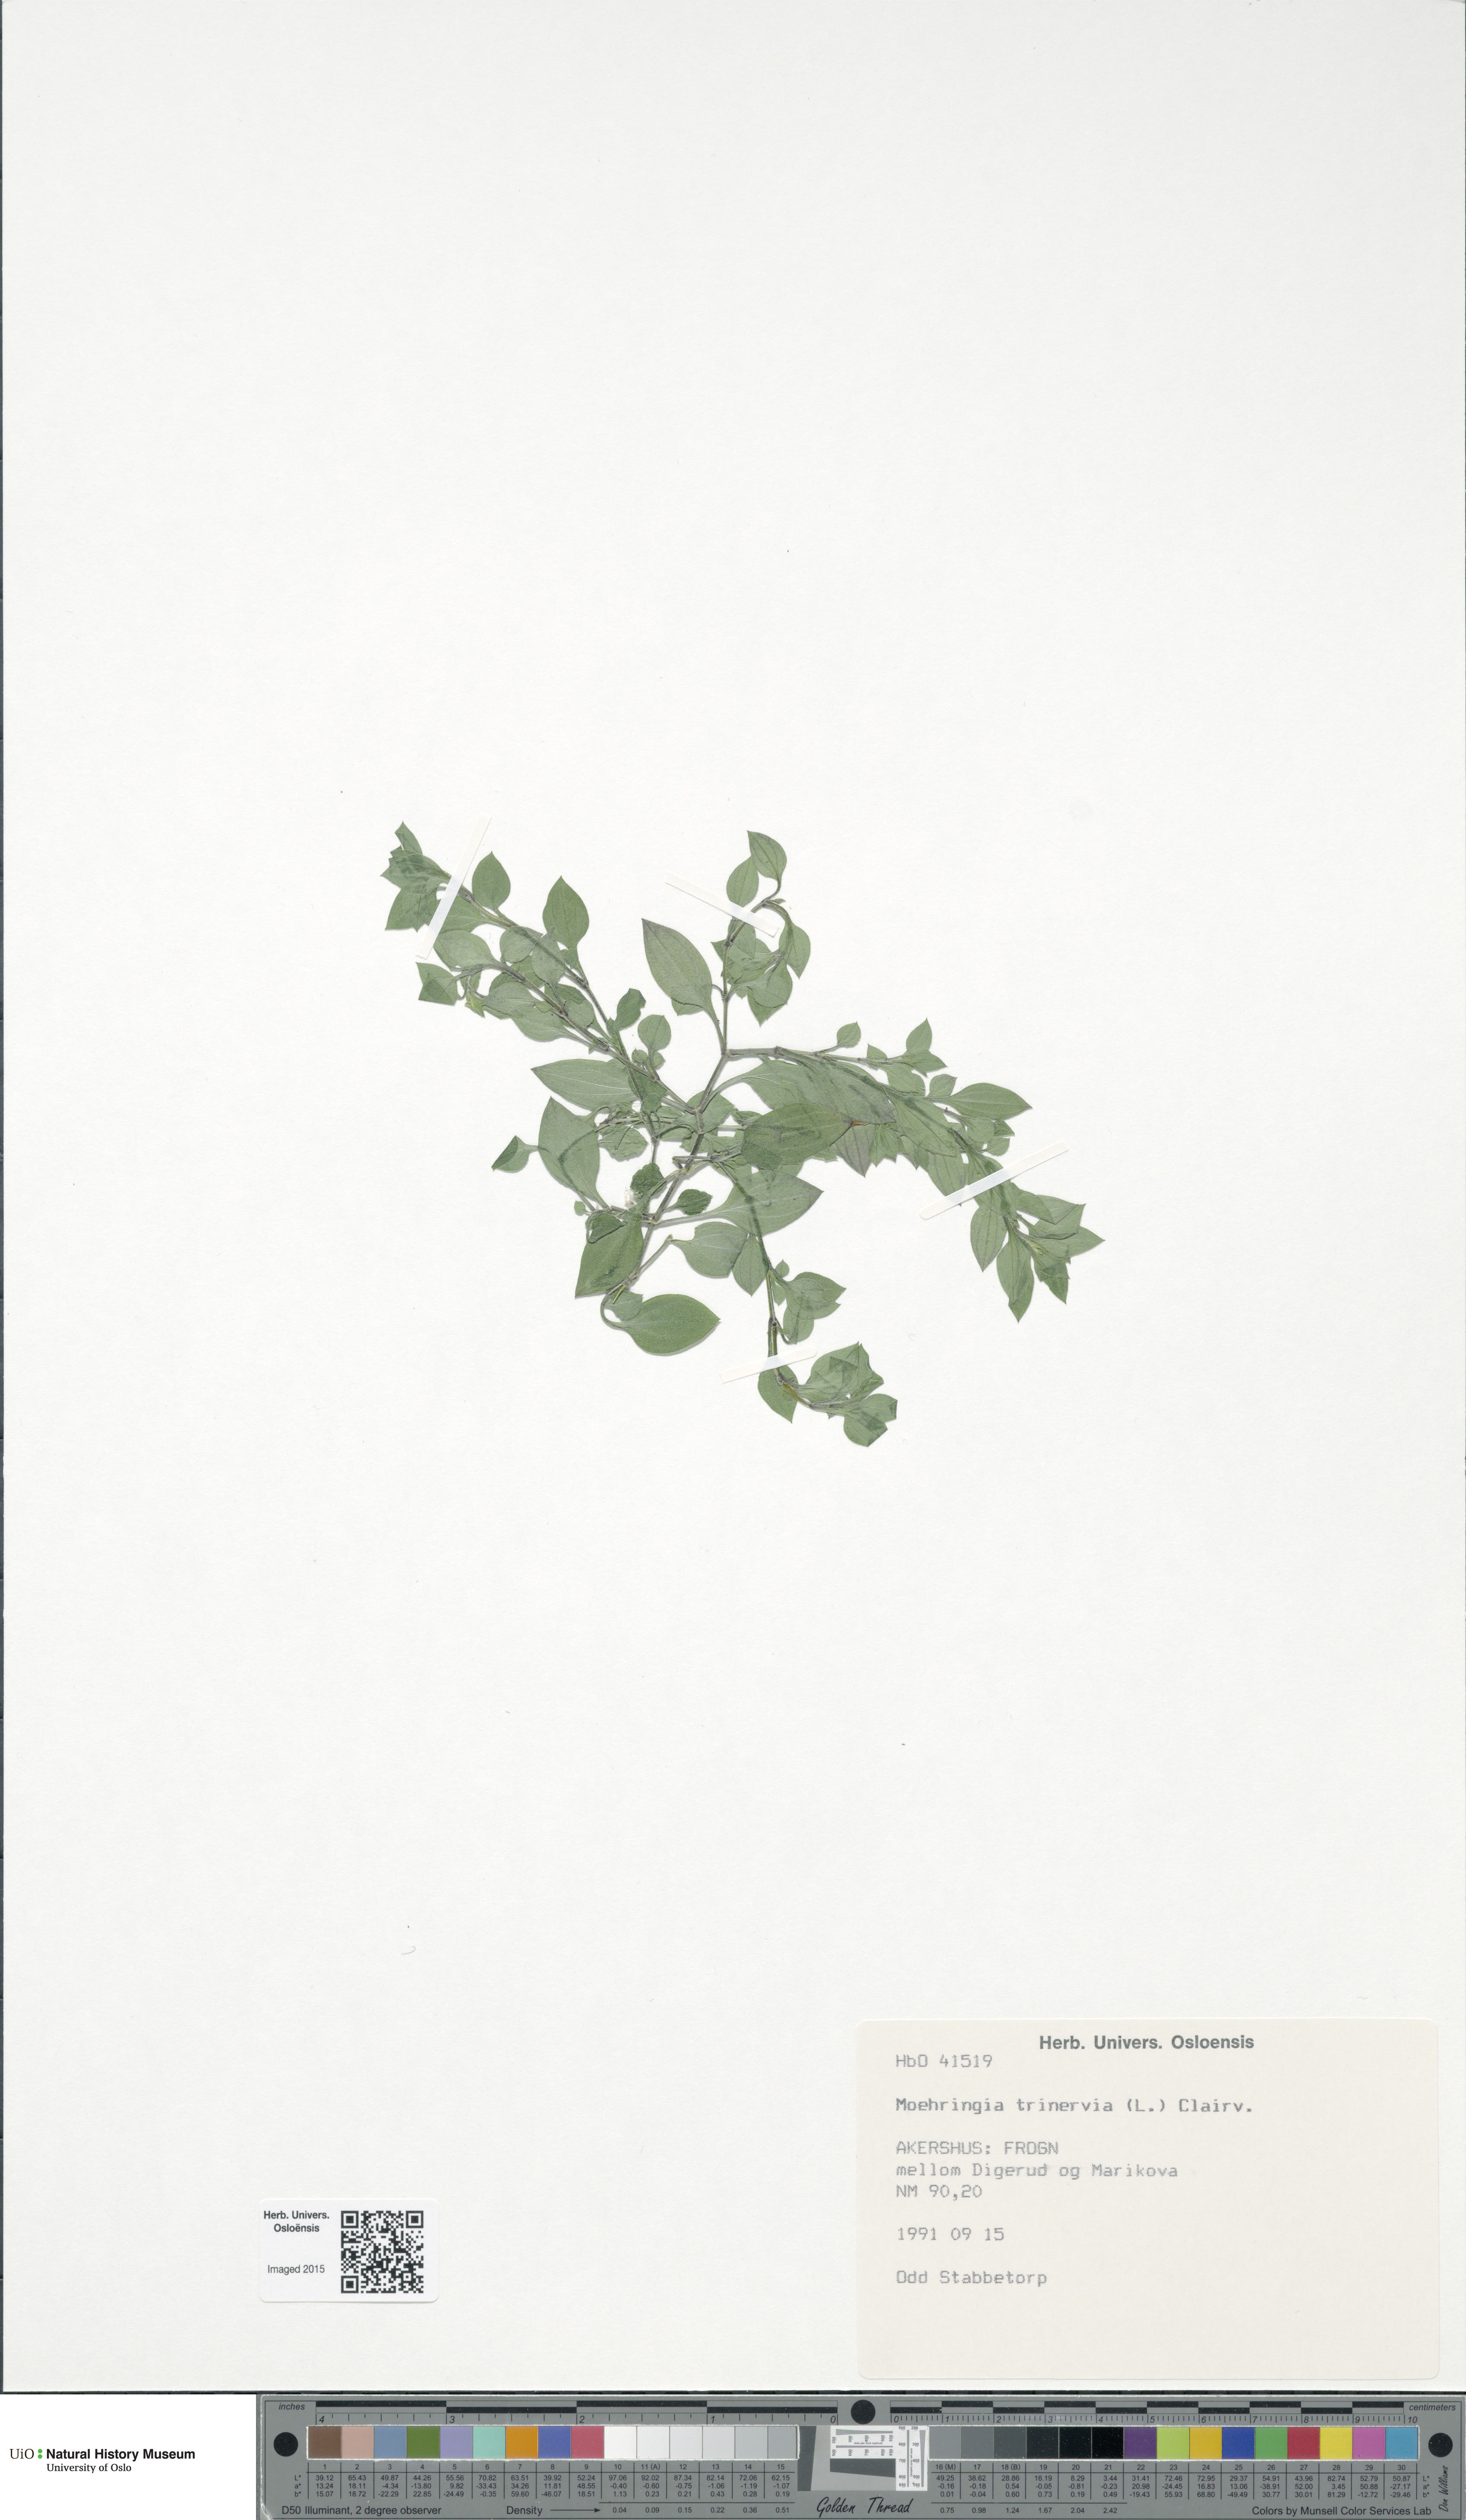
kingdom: Plantae
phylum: Tracheophyta
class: Magnoliopsida
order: Caryophyllales
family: Caryophyllaceae
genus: Moehringia
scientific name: Moehringia trinervia
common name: Three-nerved sandwort
